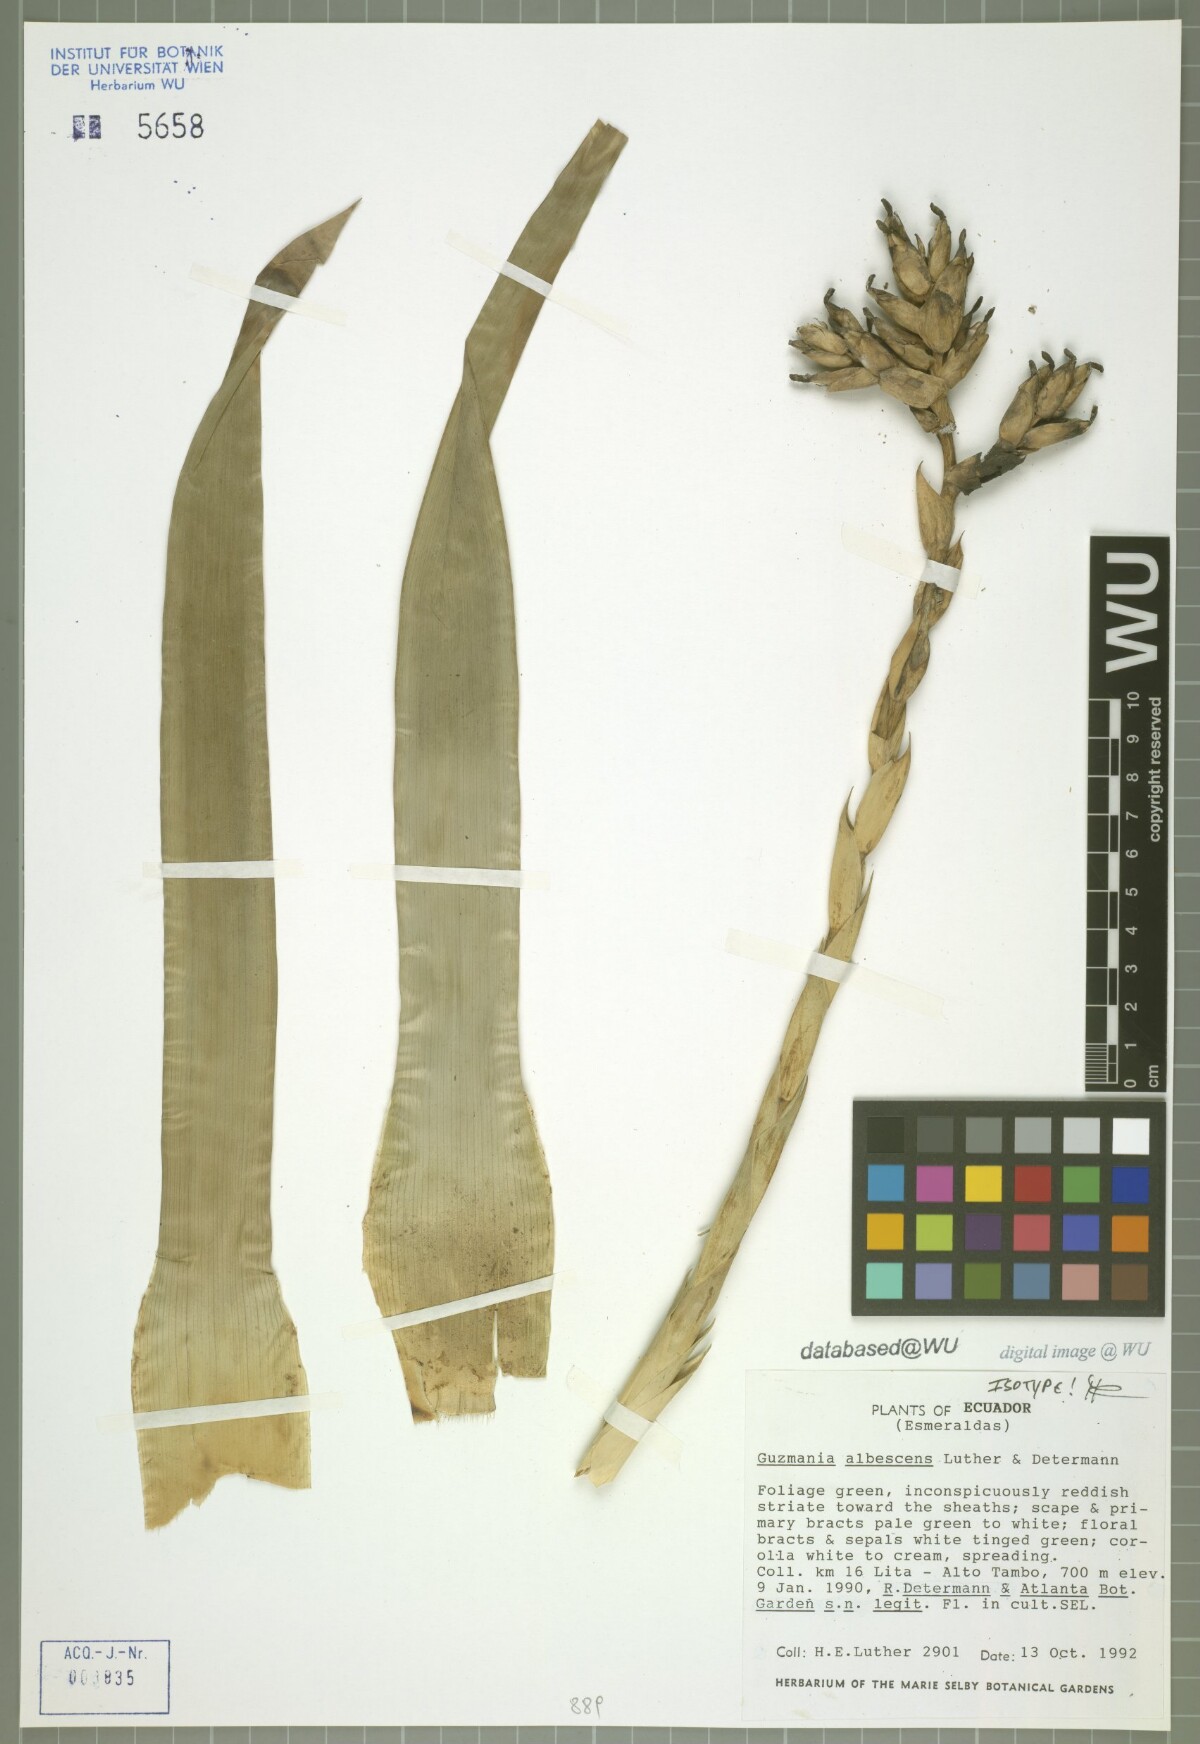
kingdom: Plantae
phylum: Tracheophyta
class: Liliopsida
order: Poales
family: Bromeliaceae
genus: Guzmania
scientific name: Guzmania albescens
